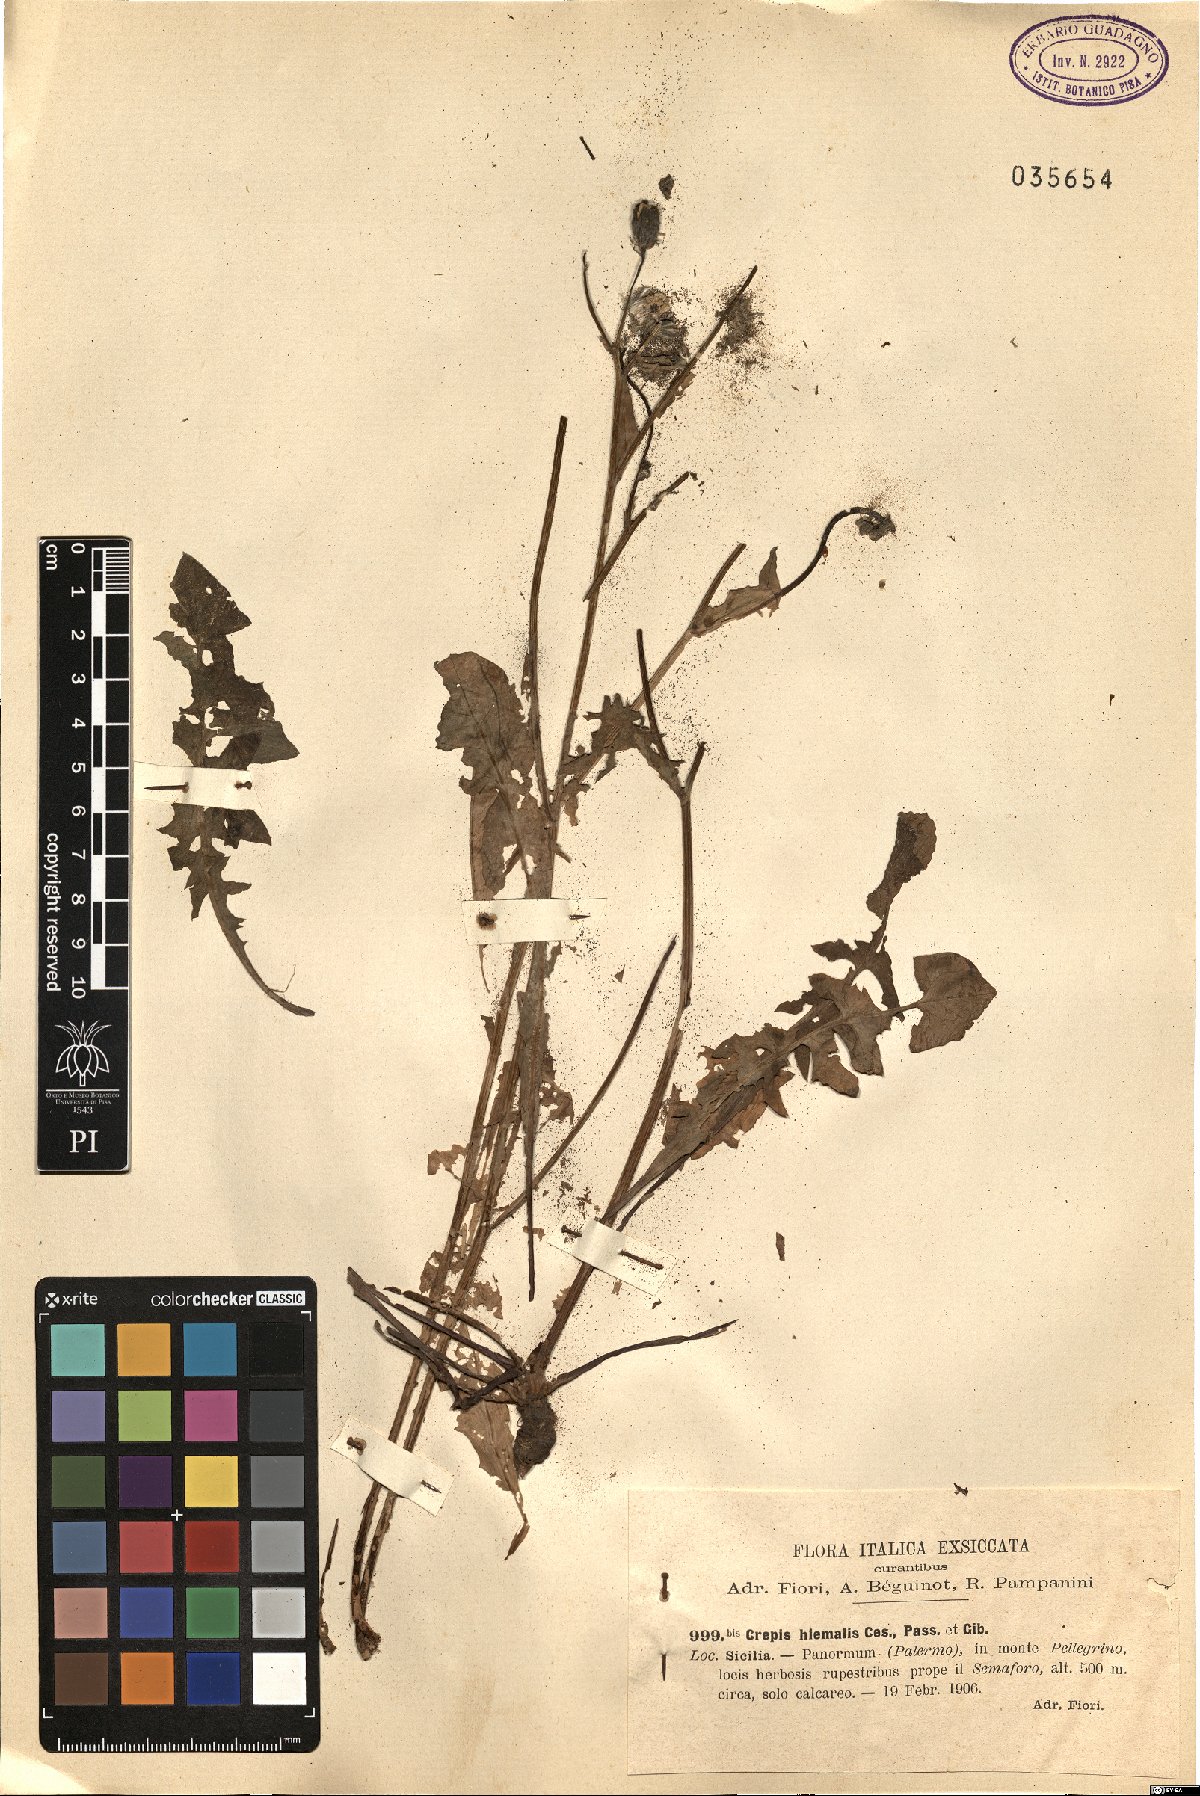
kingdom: Plantae
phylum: Tracheophyta
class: Magnoliopsida
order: Asterales
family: Asteraceae
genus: Crepis
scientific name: Crepis vesicaria
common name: Beaked hawksbeard
